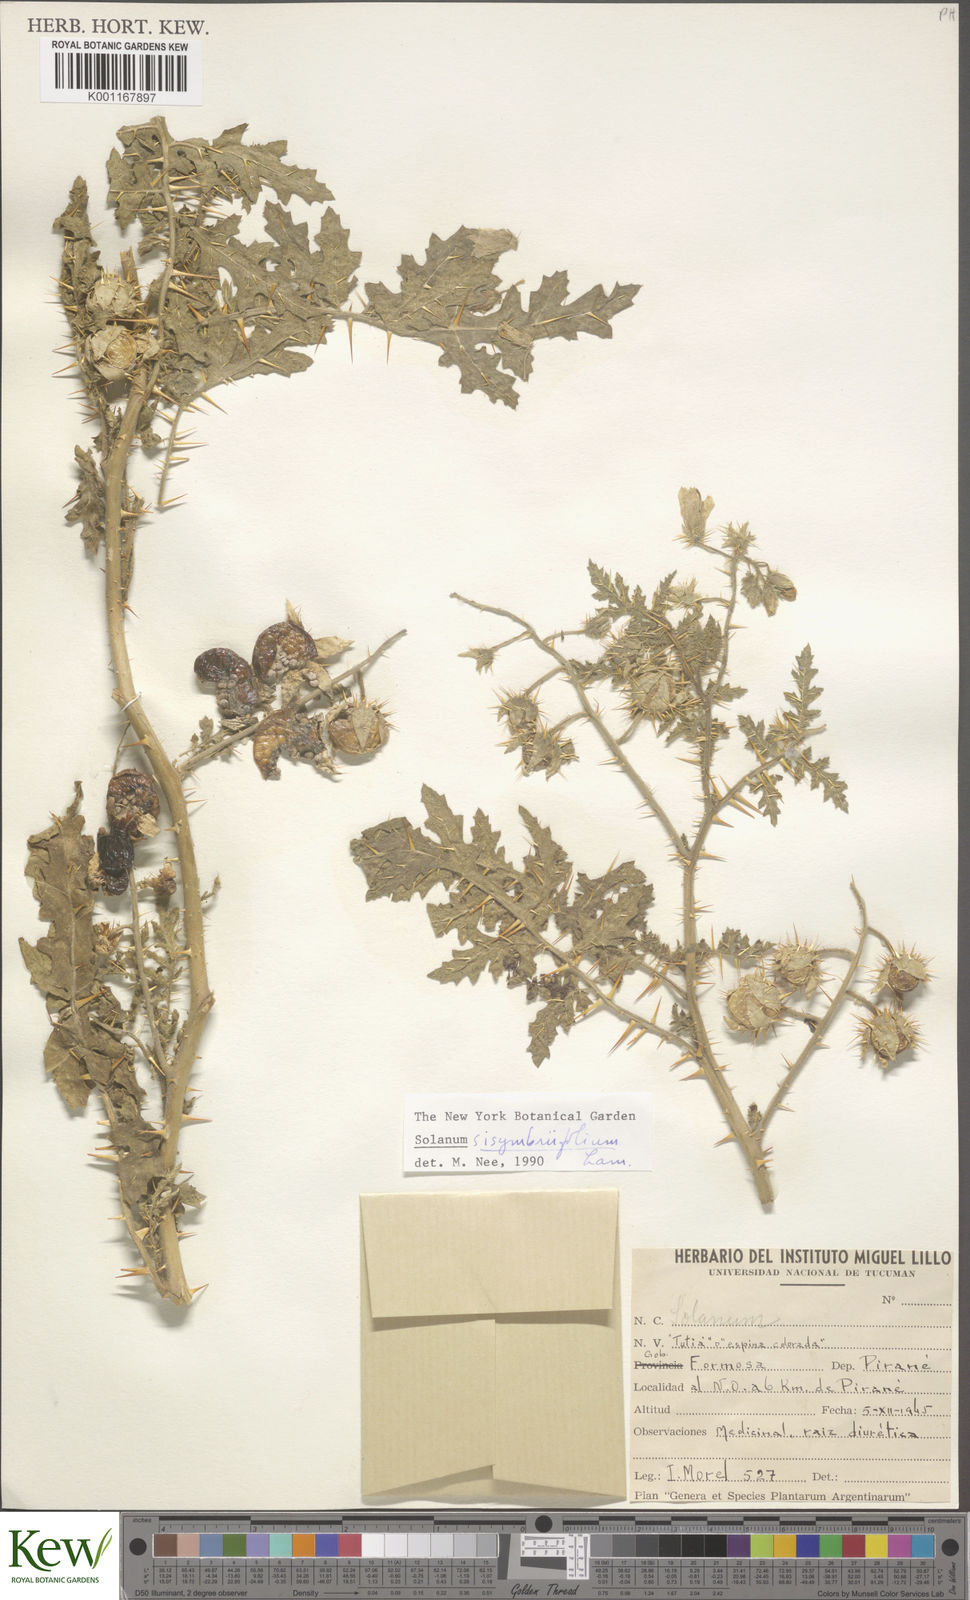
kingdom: Plantae
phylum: Tracheophyta
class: Magnoliopsida
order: Solanales
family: Solanaceae
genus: Solanum
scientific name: Solanum sisymbriifolium
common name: Red buffalo-bur
